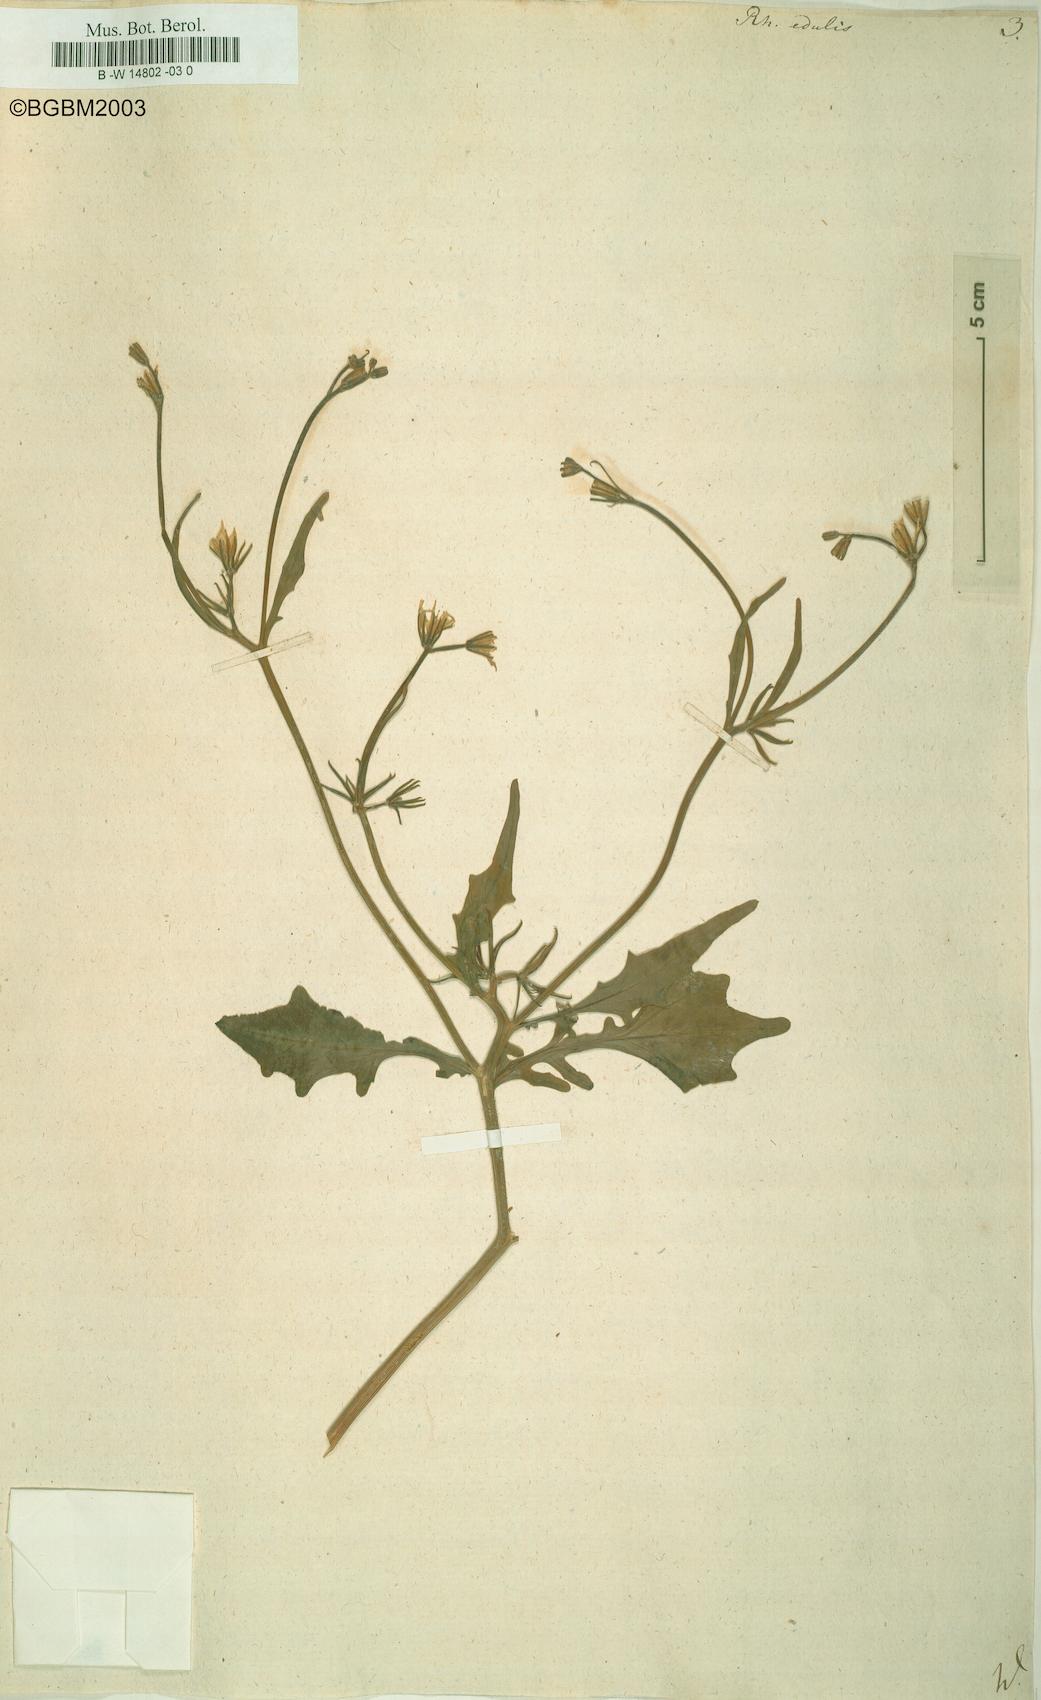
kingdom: Plantae
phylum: Tracheophyta
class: Magnoliopsida
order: Asterales
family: Asteraceae
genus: Rhagadiolus
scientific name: Rhagadiolus edulis
